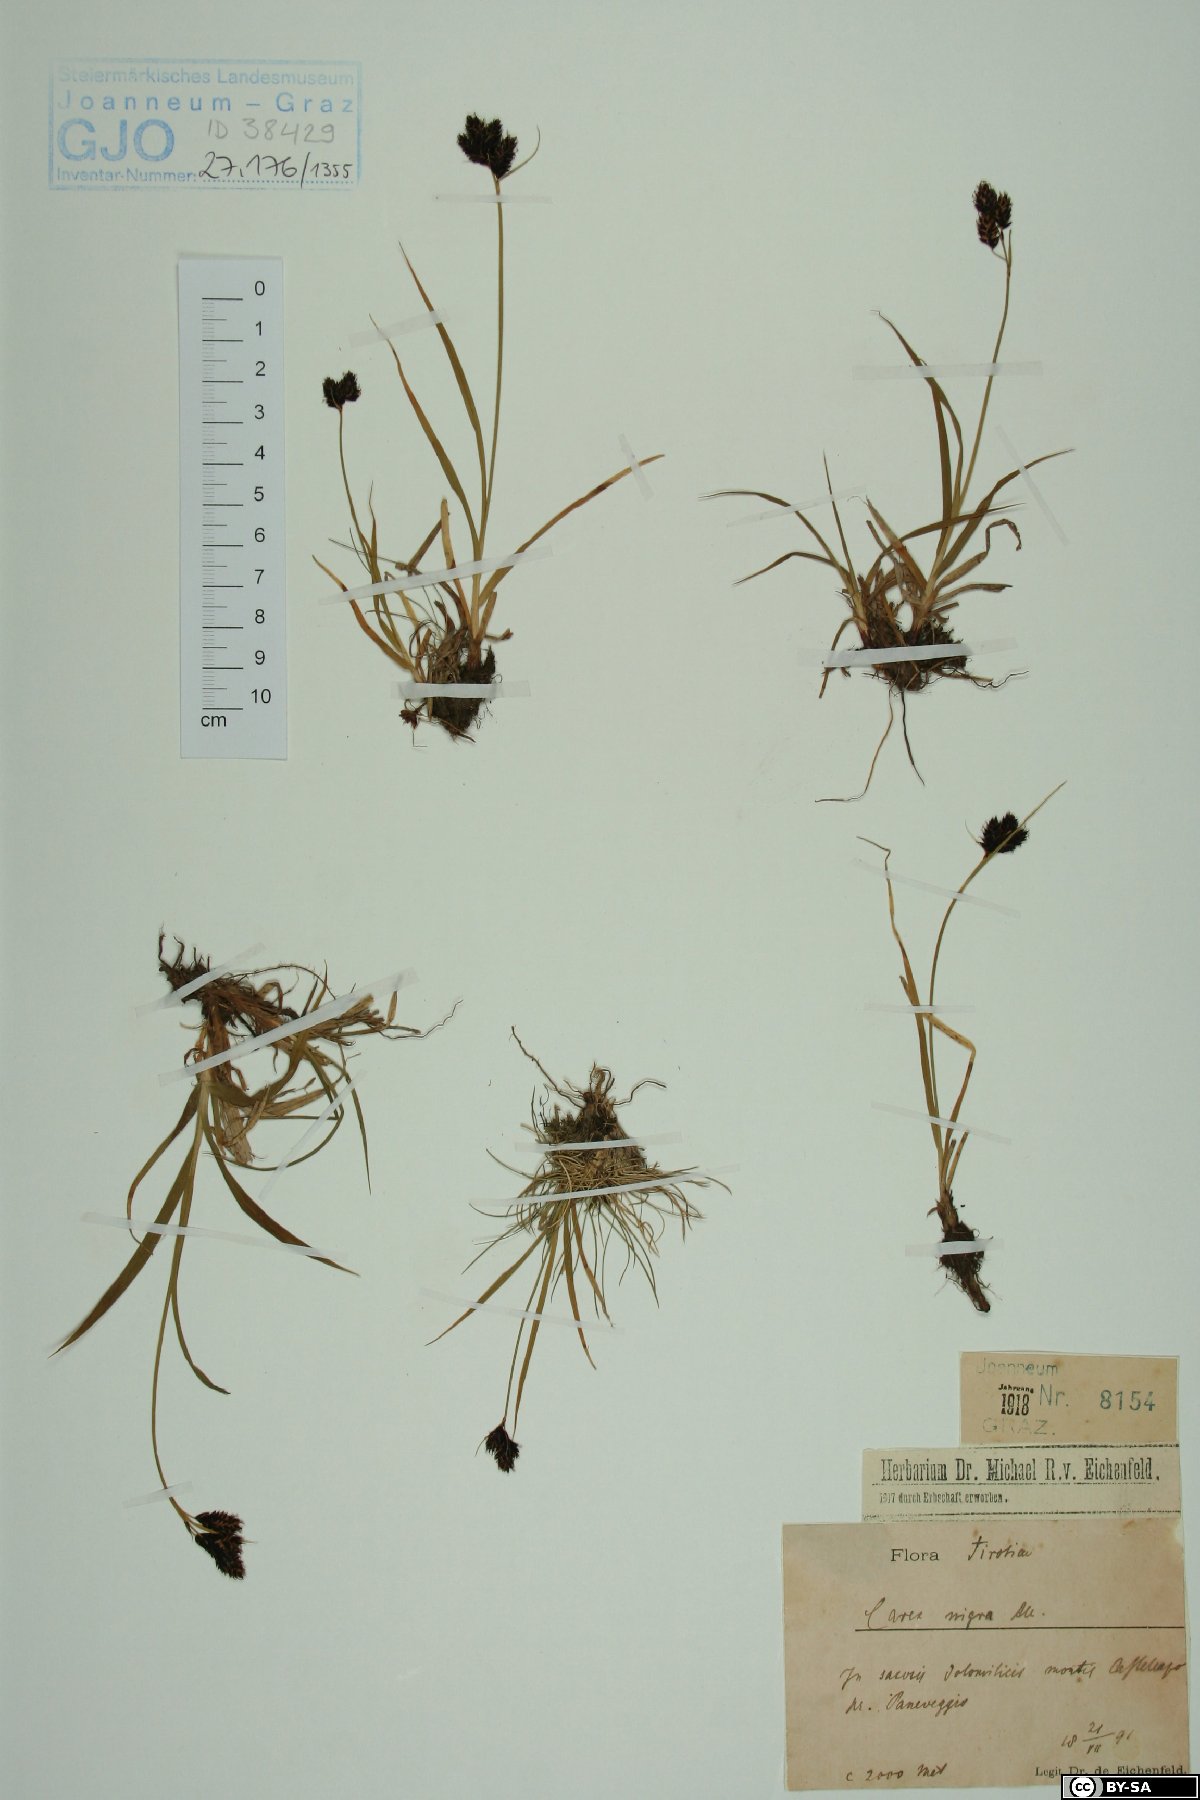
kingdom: Plantae
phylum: Tracheophyta
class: Liliopsida
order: Poales
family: Cyperaceae
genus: Carex
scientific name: Carex nigra
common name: Common sedge
